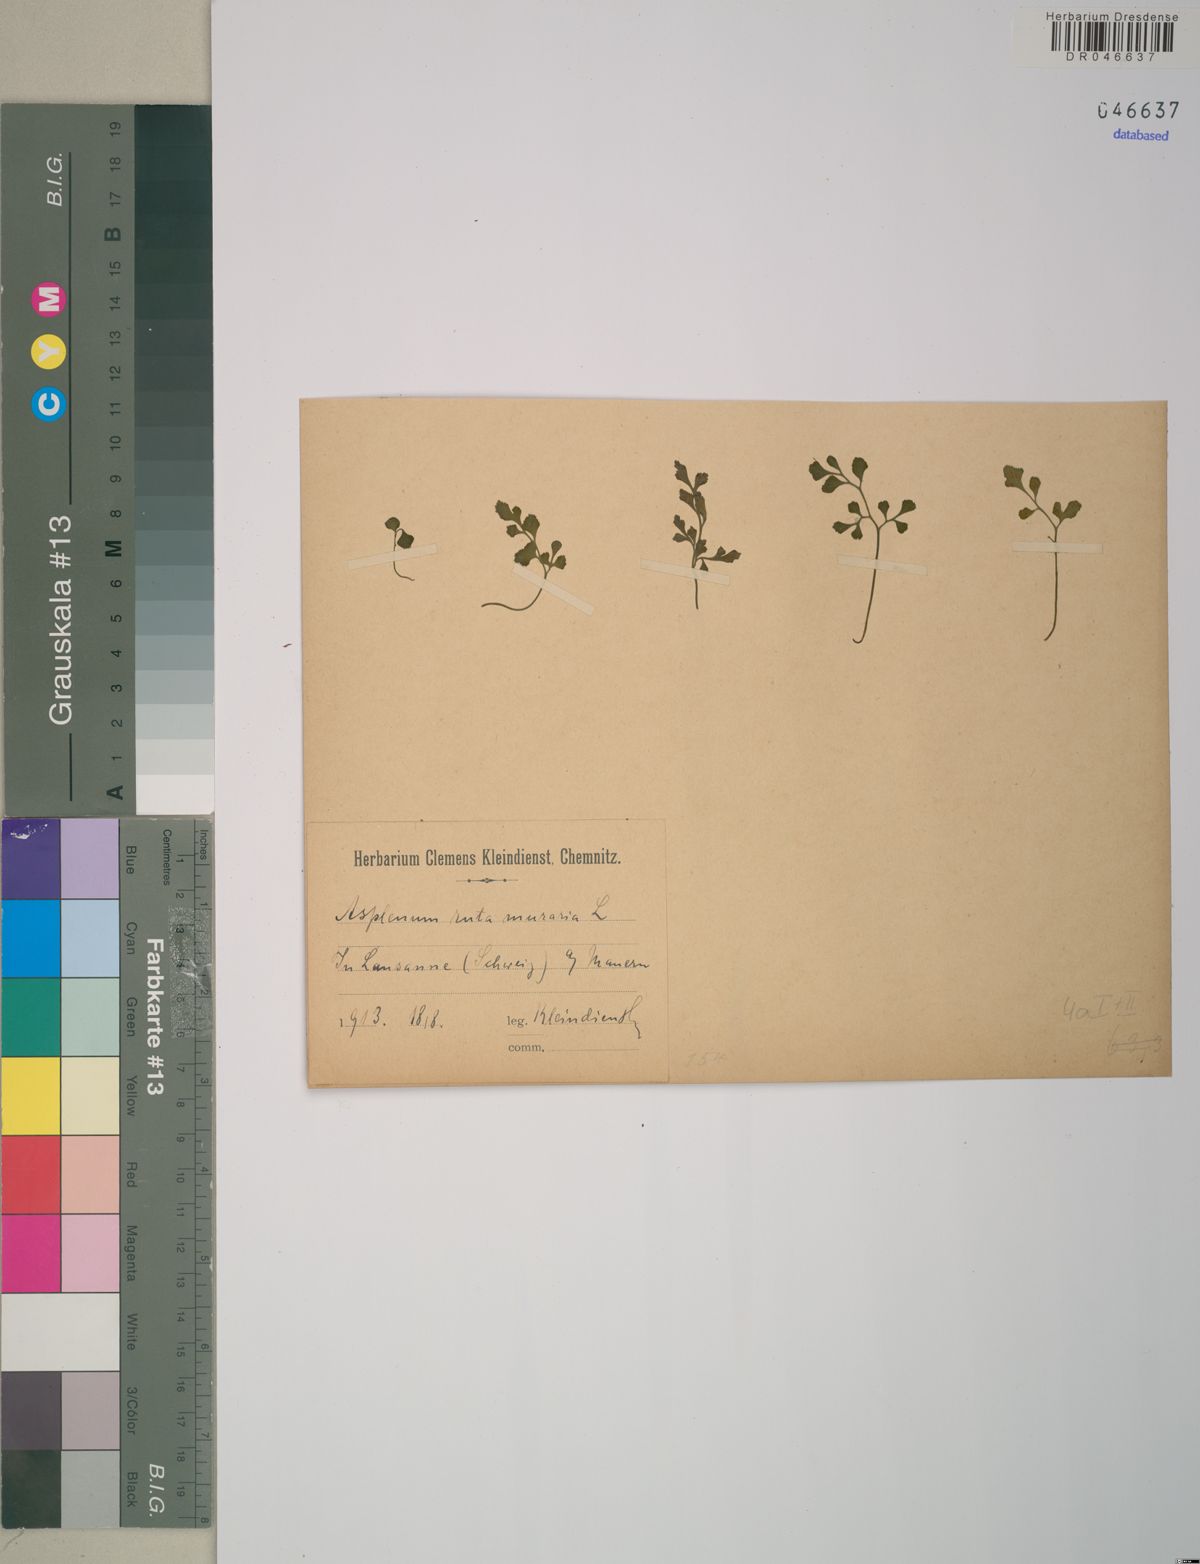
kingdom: Plantae
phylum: Tracheophyta
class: Polypodiopsida
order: Polypodiales
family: Aspleniaceae
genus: Asplenium
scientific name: Asplenium ruta-muraria
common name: Wall-rue
